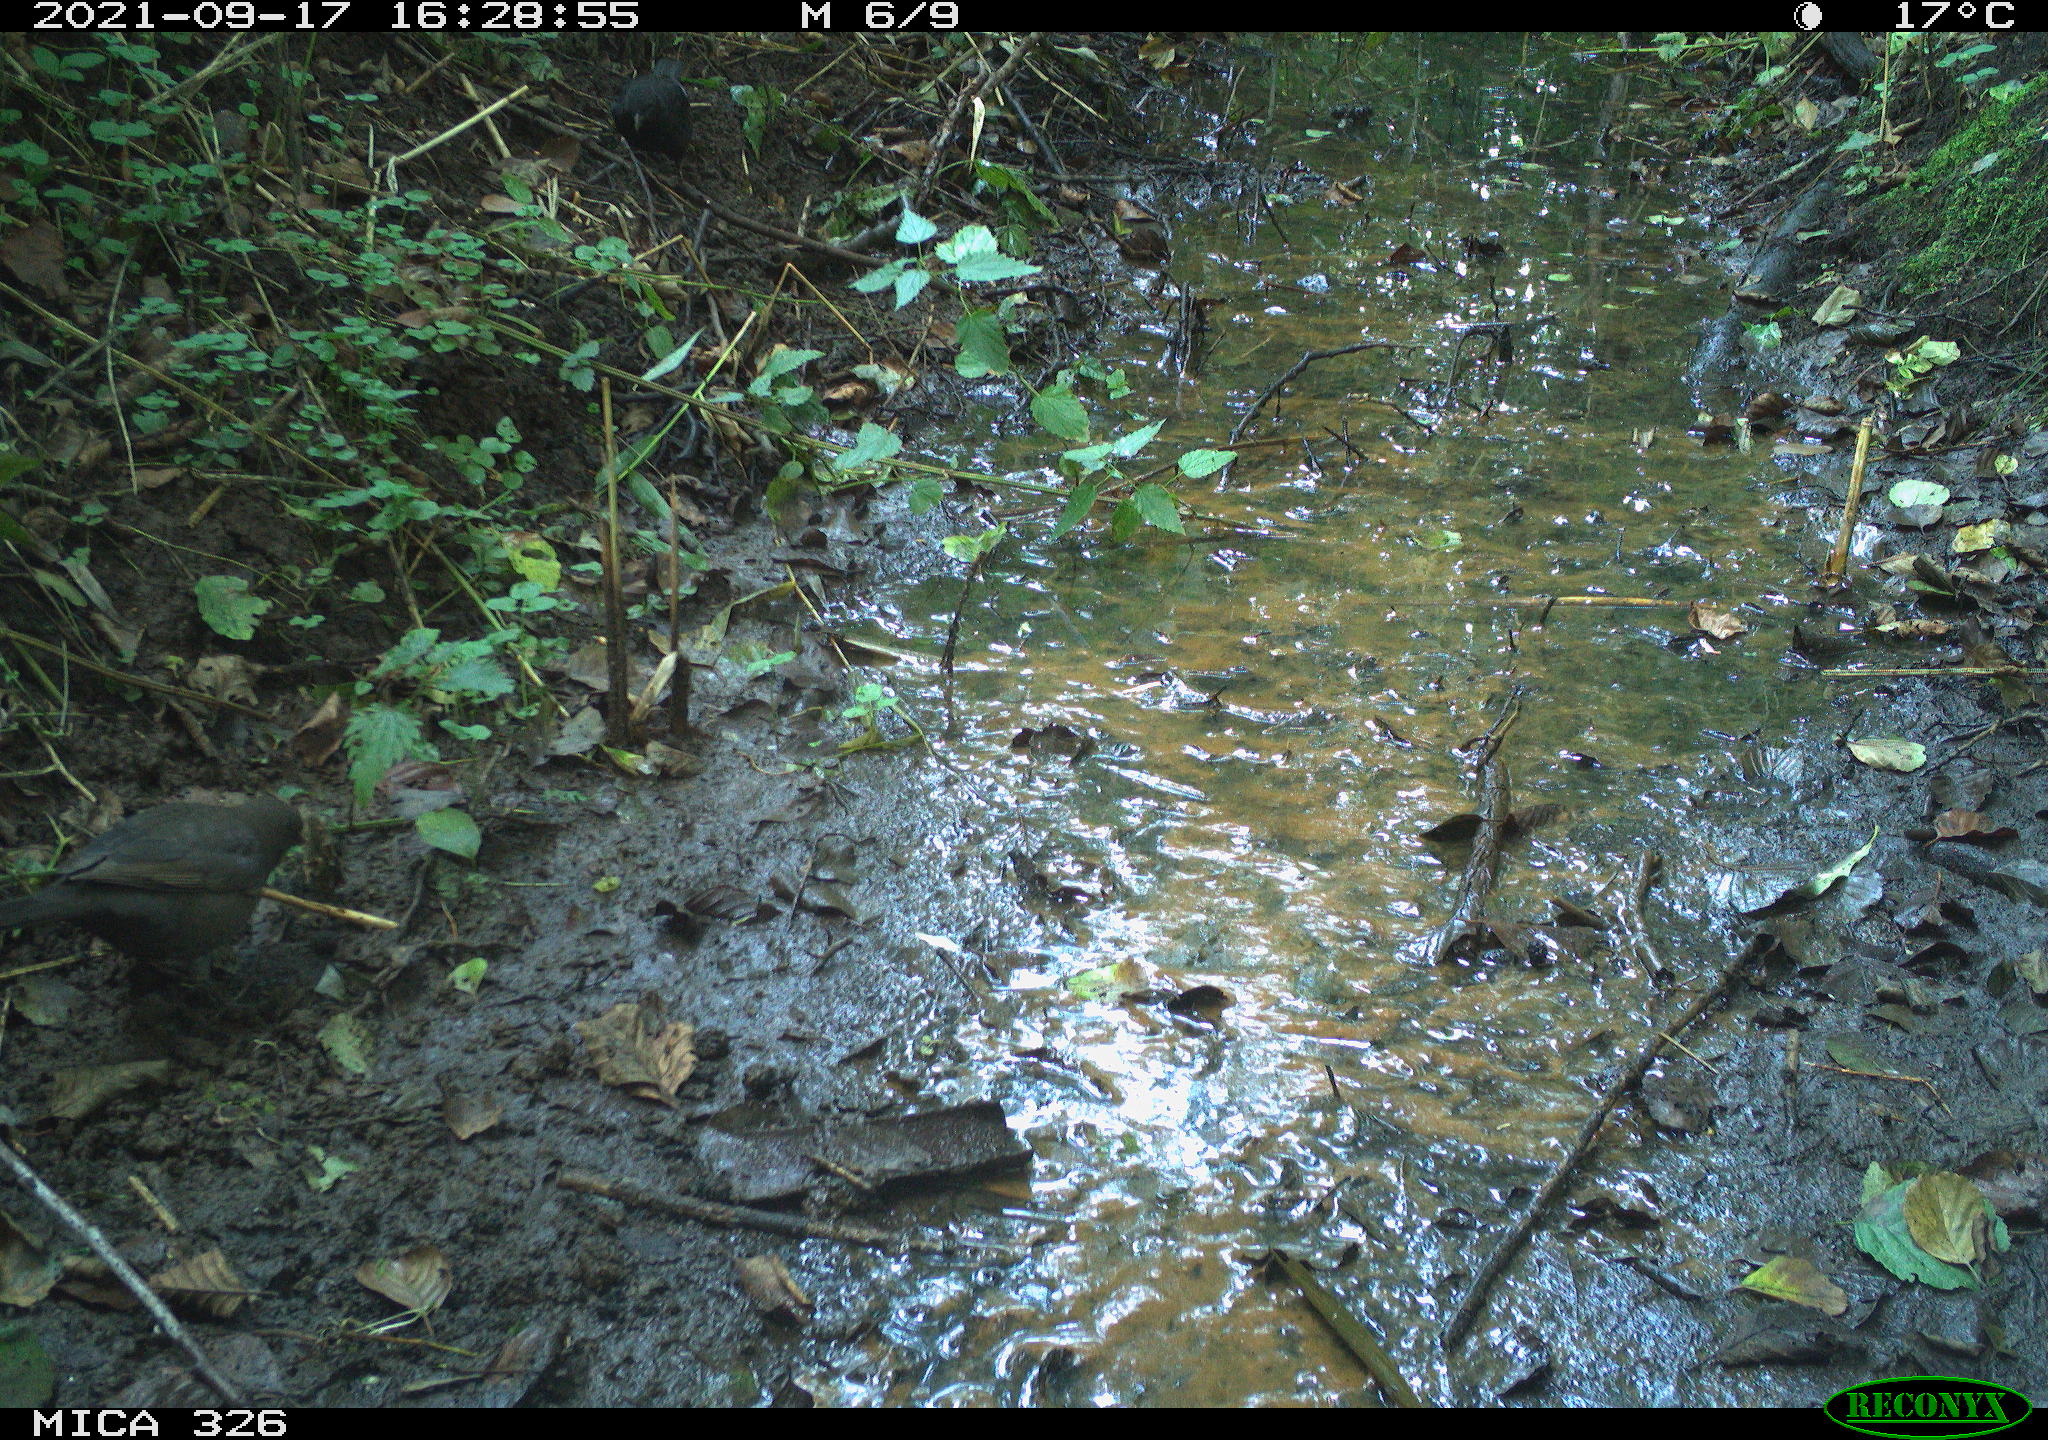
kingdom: Animalia
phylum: Chordata
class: Aves
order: Passeriformes
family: Turdidae
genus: Turdus
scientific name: Turdus merula
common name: Common blackbird
